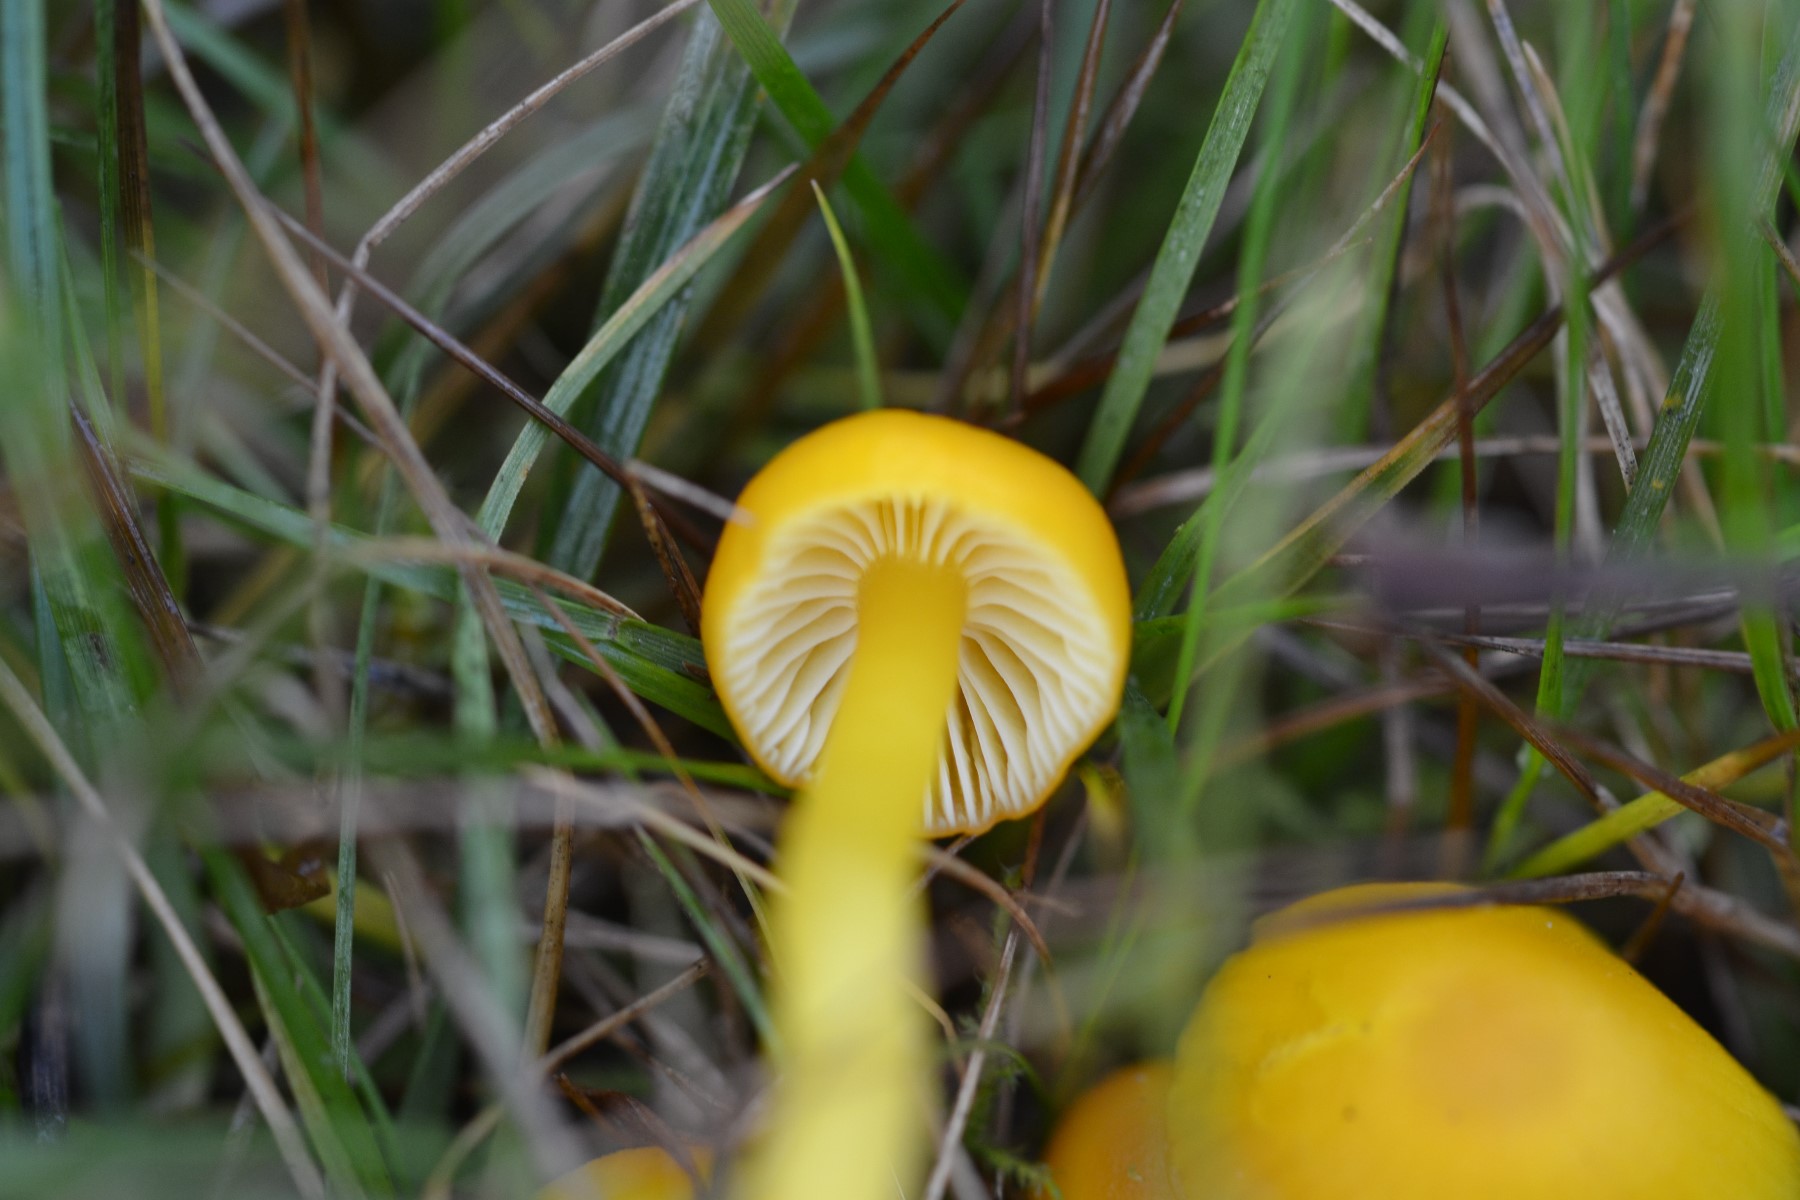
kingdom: Fungi
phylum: Basidiomycota
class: Agaricomycetes
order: Agaricales
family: Hygrophoraceae
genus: Hygrocybe
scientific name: Hygrocybe ceracea
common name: voksgul vokshat
